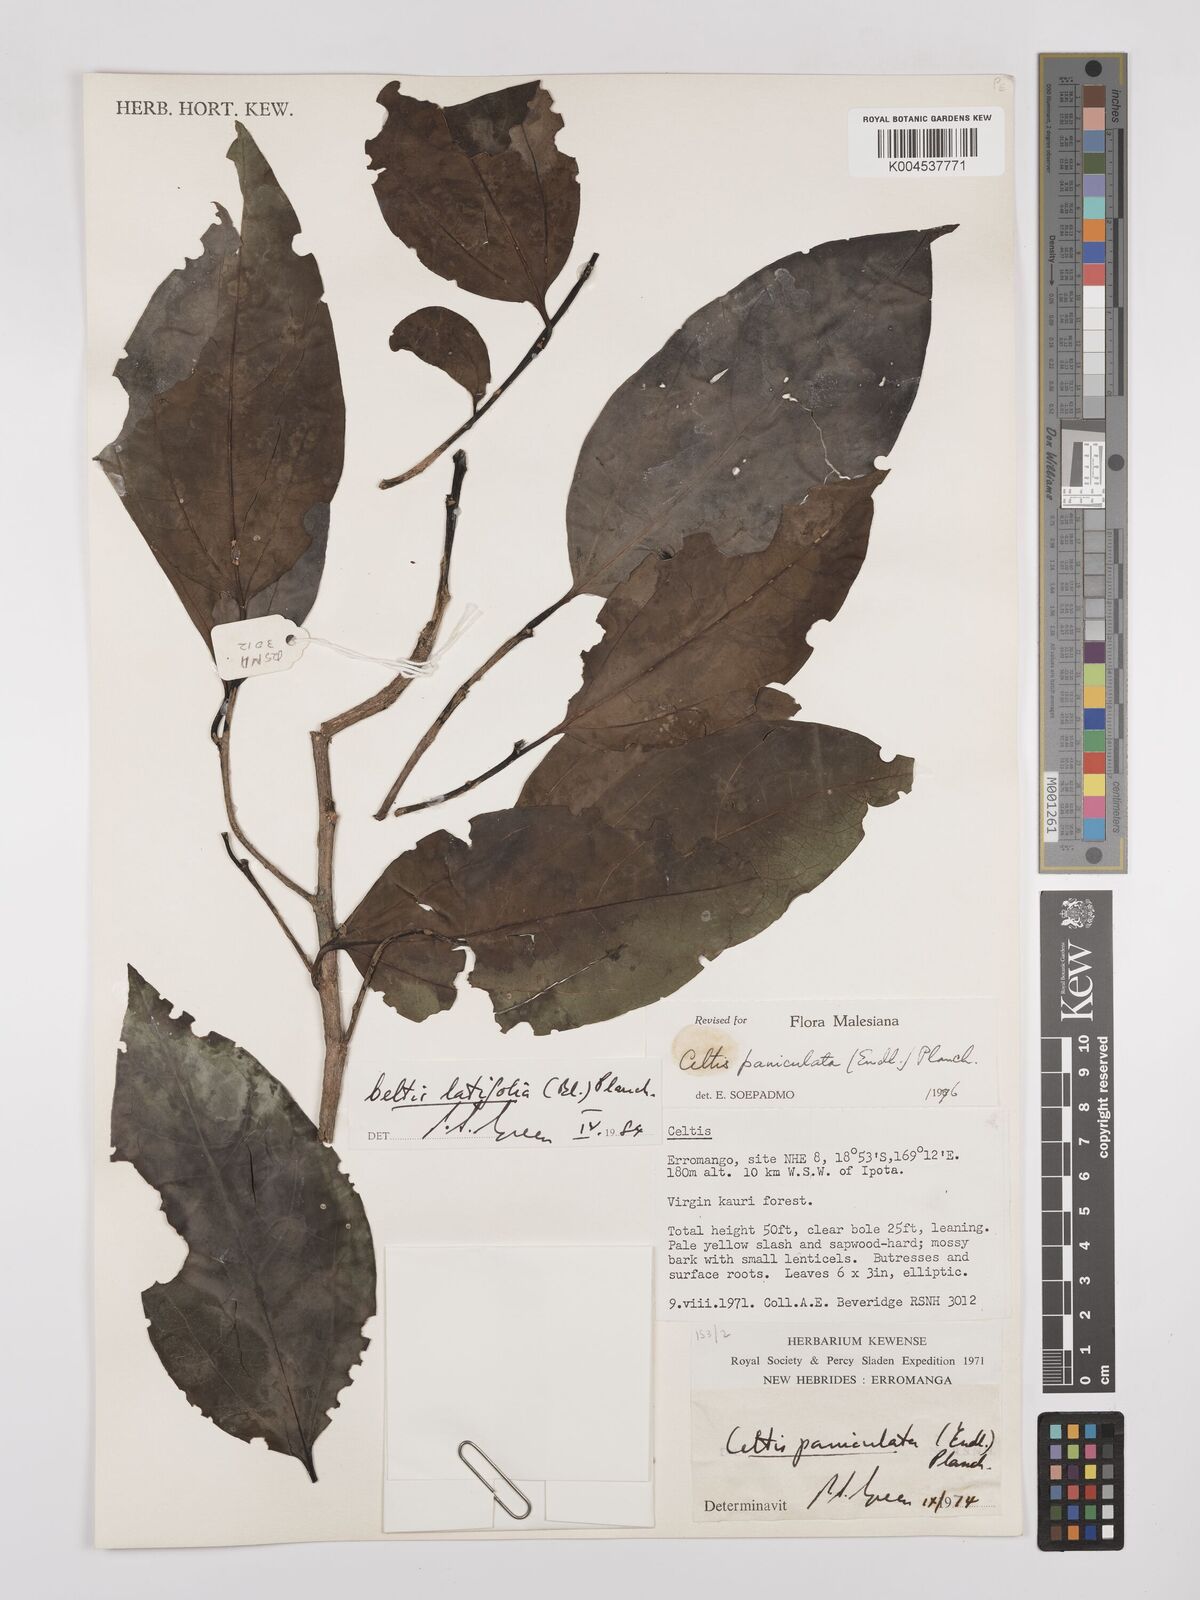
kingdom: Plantae
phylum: Tracheophyta
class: Magnoliopsida
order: Rosales
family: Cannabaceae
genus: Celtis
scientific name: Celtis latifolia
